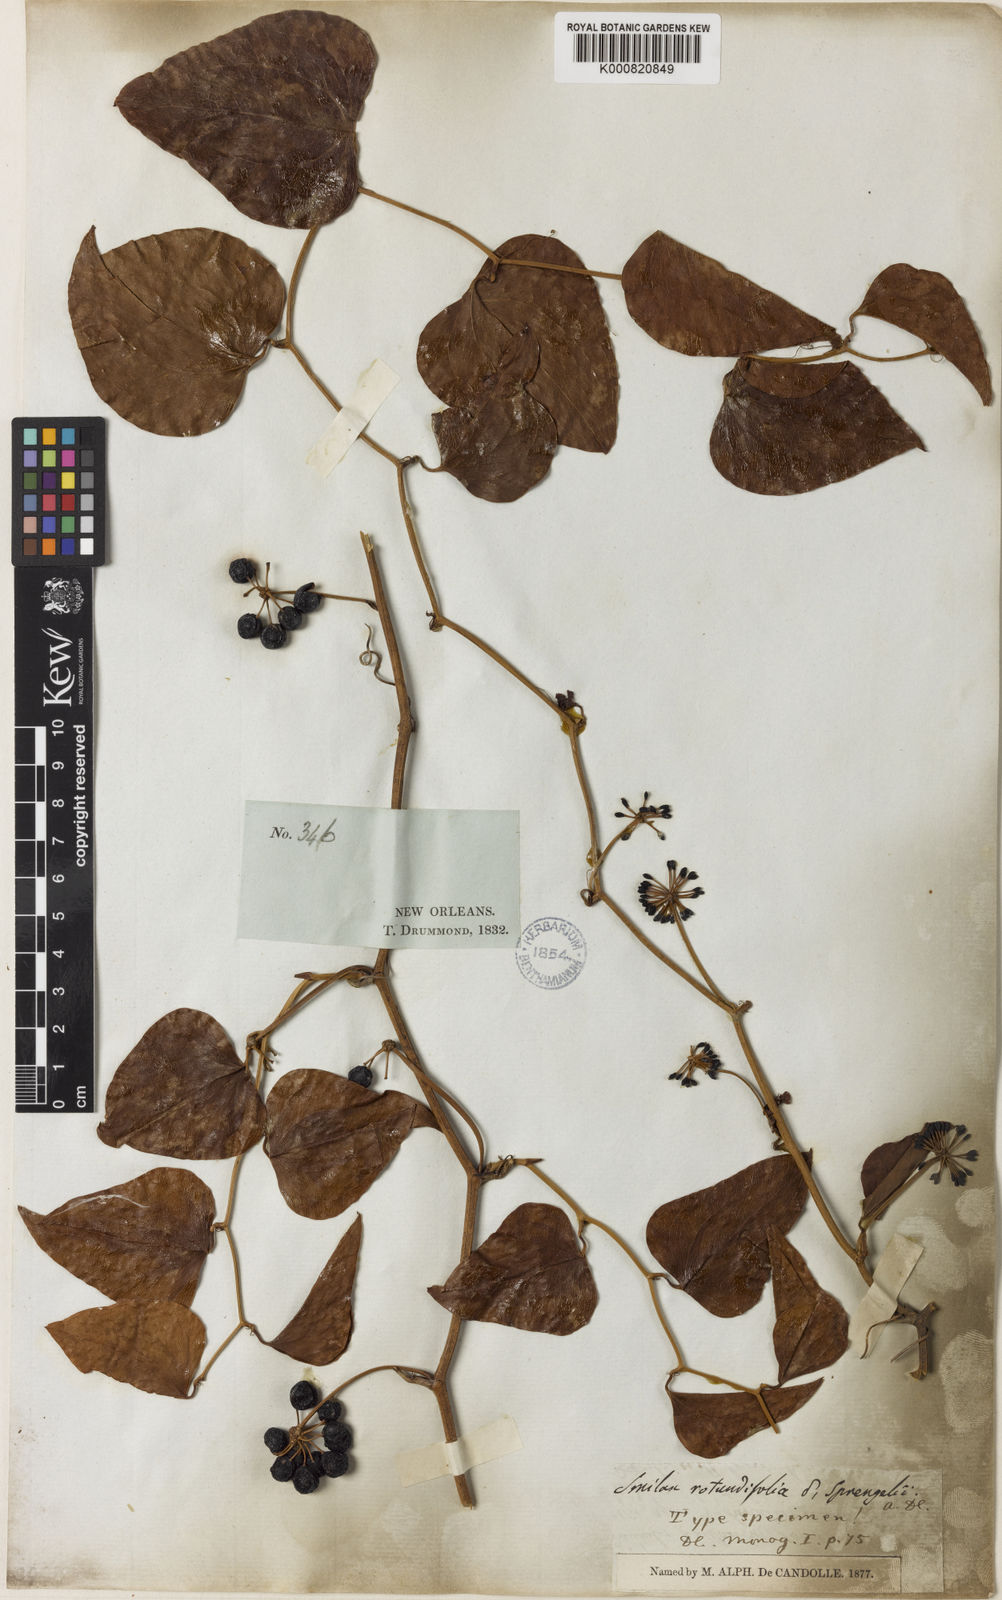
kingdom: Plantae
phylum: Tracheophyta
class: Liliopsida
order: Liliales
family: Smilacaceae
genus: Smilax
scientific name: Smilax rotundifolia
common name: Bullbriar
